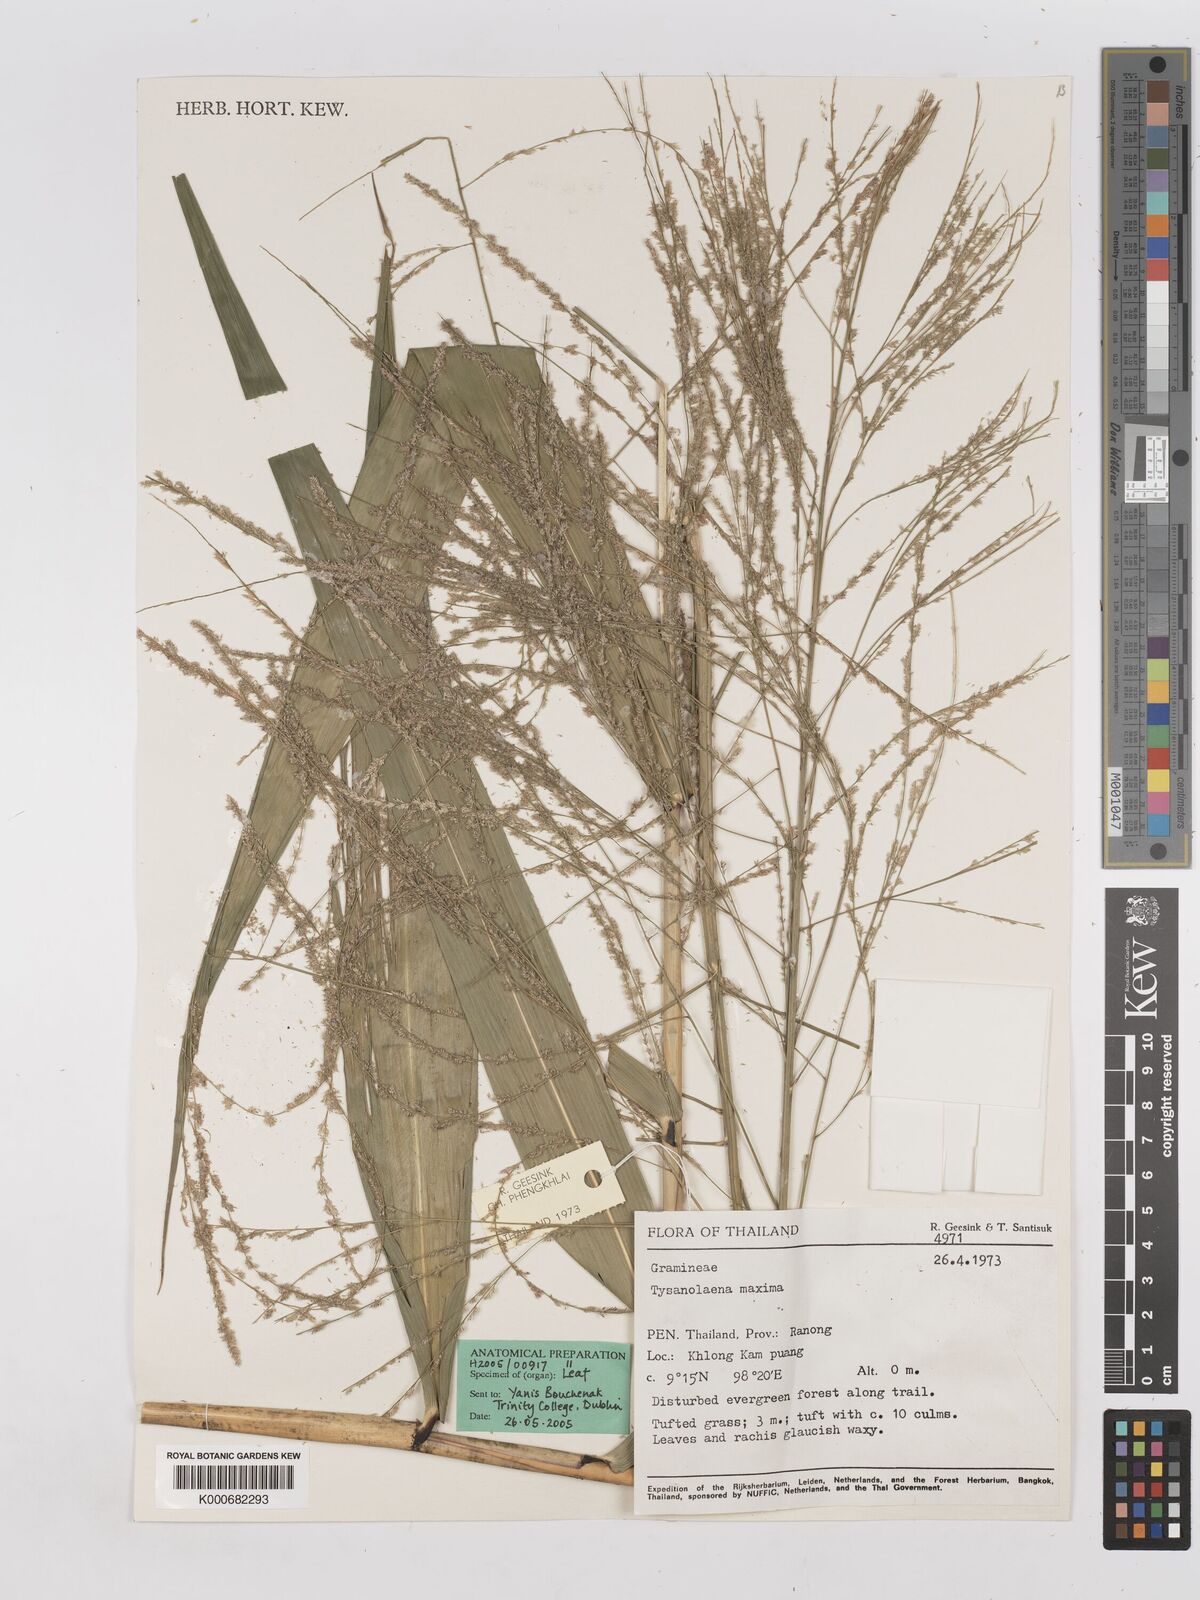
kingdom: Plantae
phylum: Tracheophyta
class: Liliopsida
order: Poales
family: Poaceae
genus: Thysanolaena
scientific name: Thysanolaena latifolia
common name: Tiger grass
